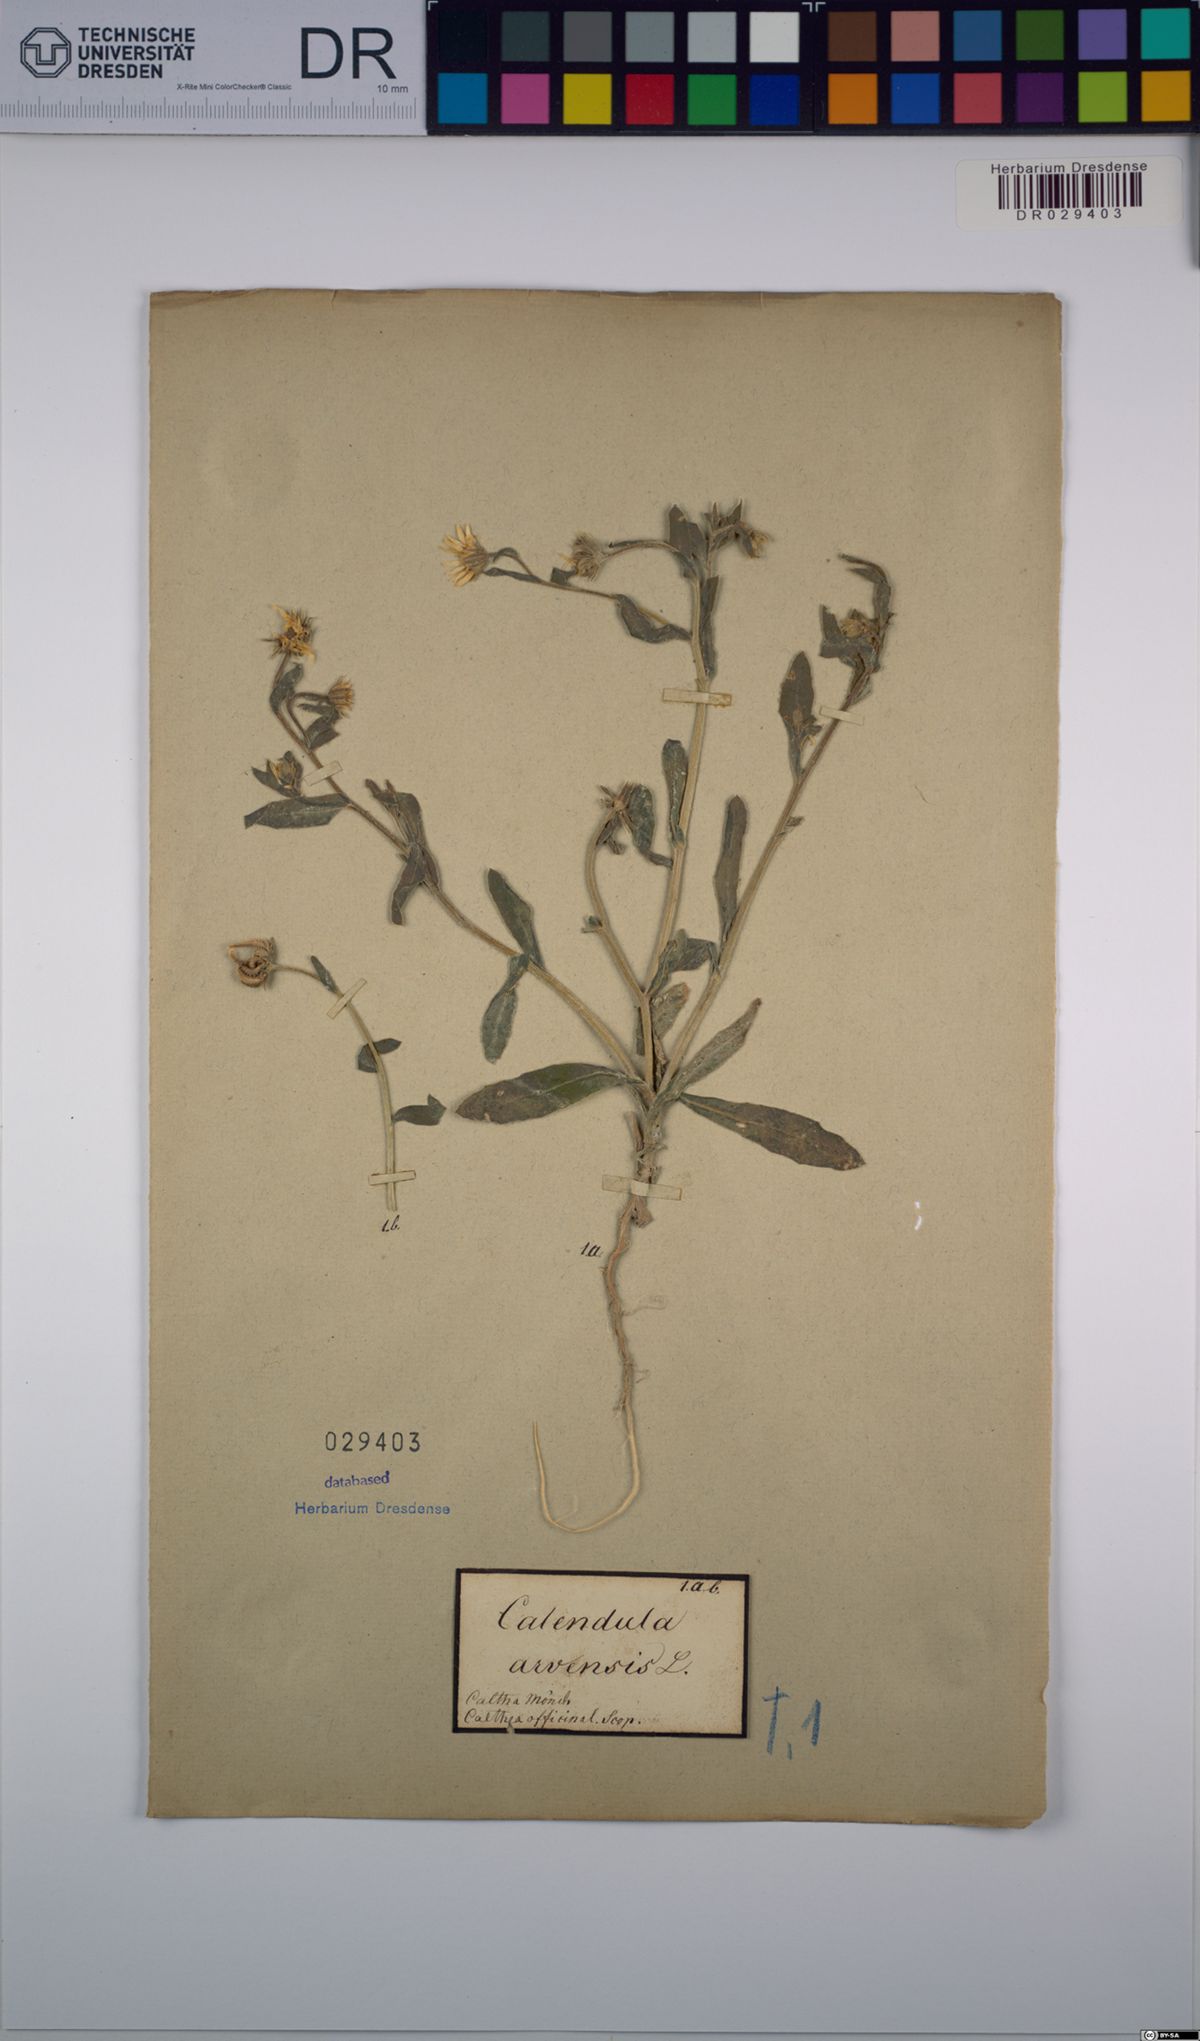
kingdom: Plantae
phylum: Tracheophyta
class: Magnoliopsida
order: Asterales
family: Asteraceae
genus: Calendula
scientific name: Calendula arvensis
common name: Field marigold
